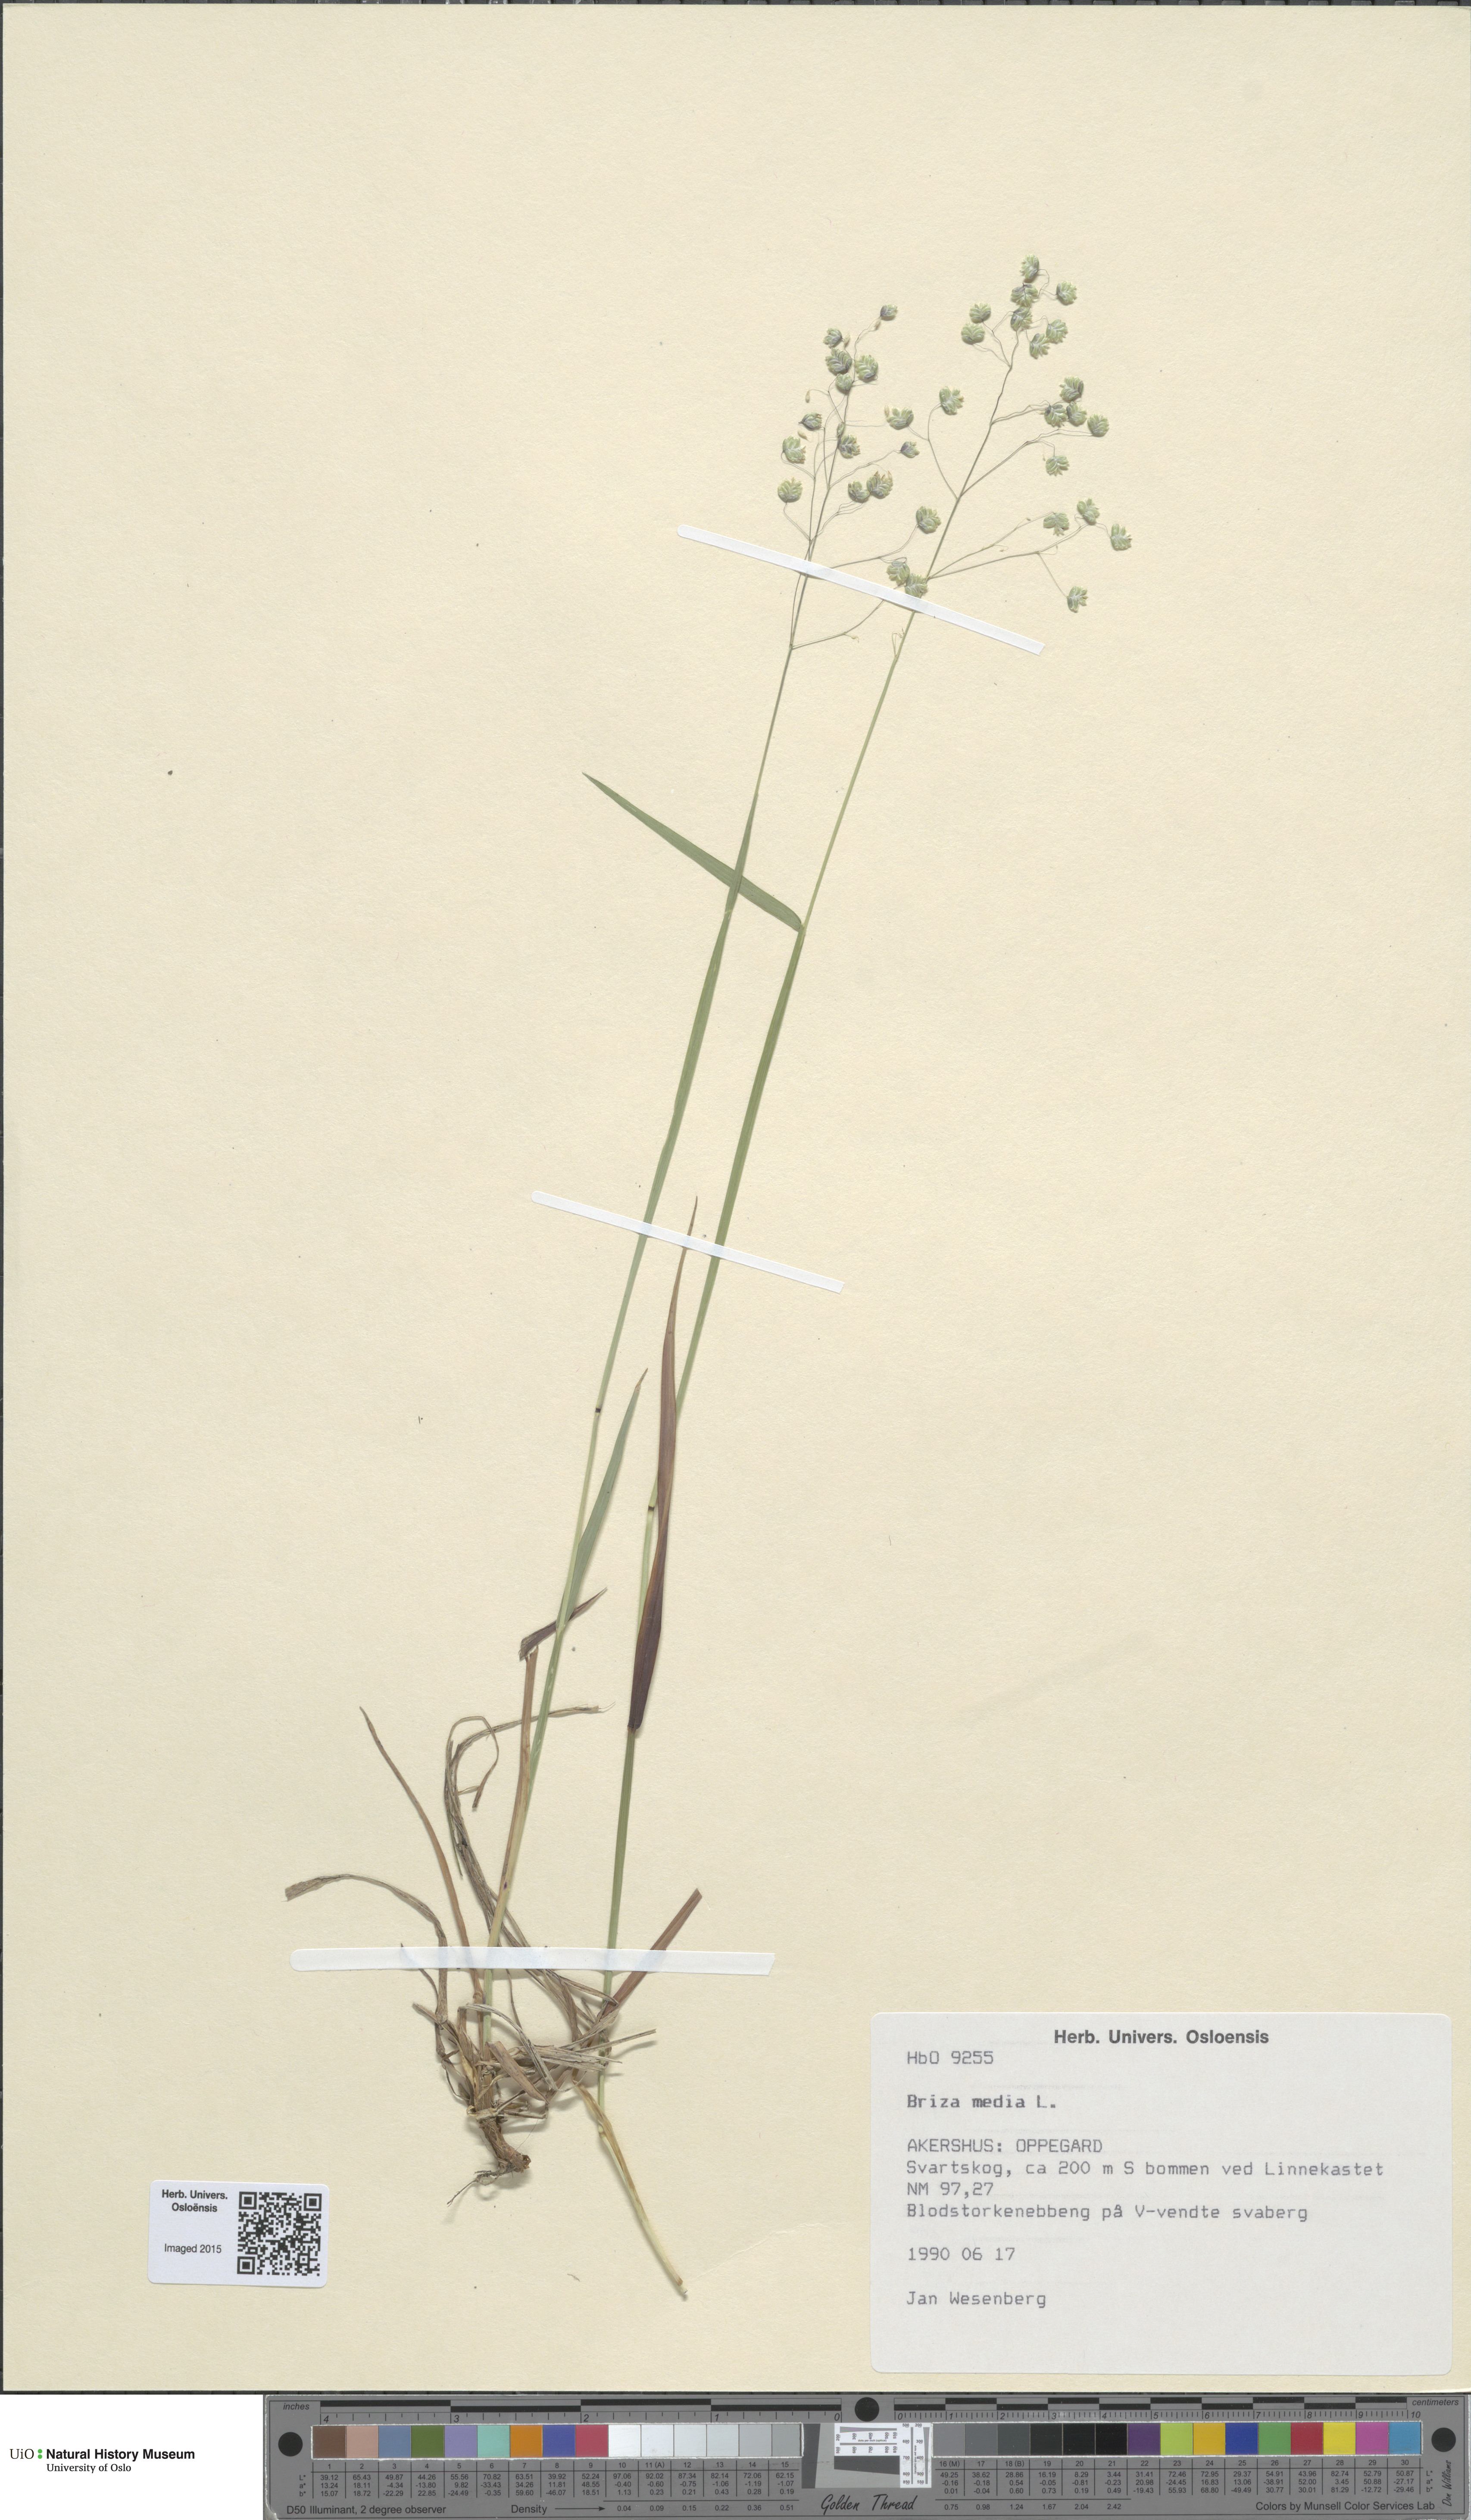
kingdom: Plantae
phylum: Tracheophyta
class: Liliopsida
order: Poales
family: Poaceae
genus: Briza
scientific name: Briza media
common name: Quaking grass
